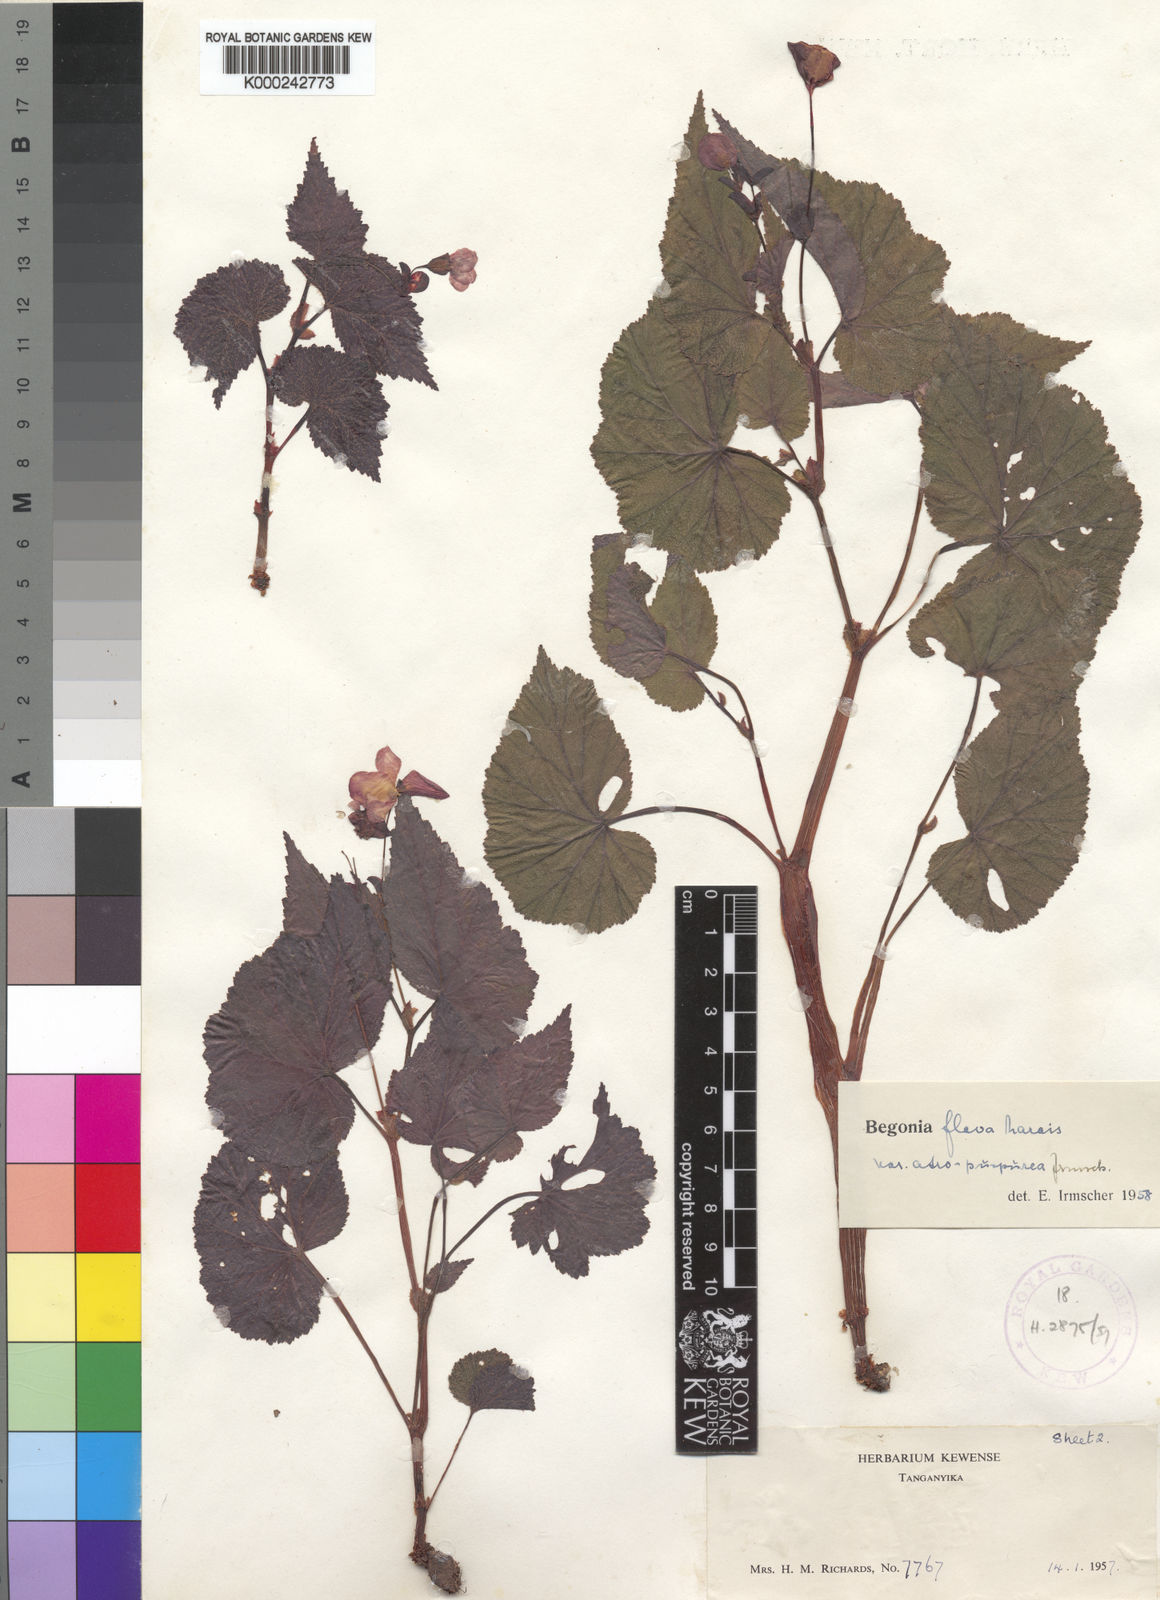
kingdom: Plantae
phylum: Tracheophyta
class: Magnoliopsida
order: Cucurbitales
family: Begoniaceae
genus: Begonia
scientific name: Begonia sutherlandii
